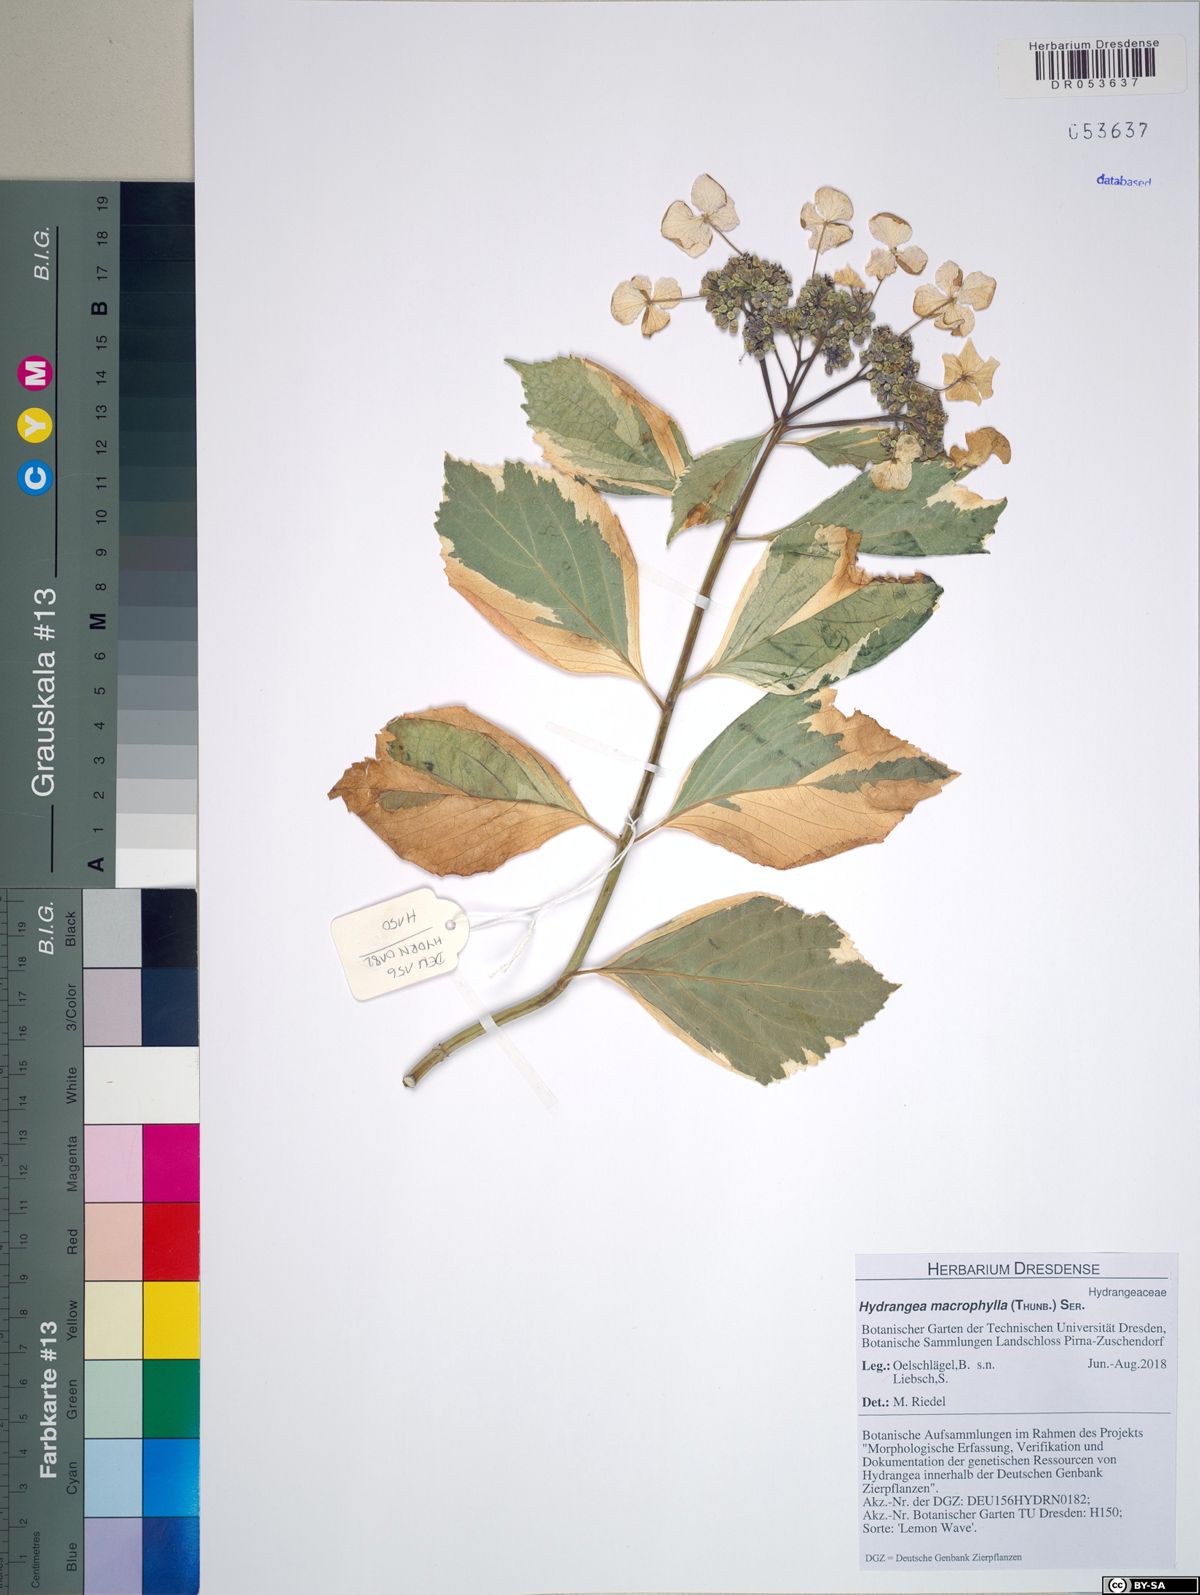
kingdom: Plantae
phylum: Tracheophyta
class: Magnoliopsida
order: Cornales
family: Hydrangeaceae
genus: Hydrangea
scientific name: Hydrangea macrophylla
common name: Hydrangea
